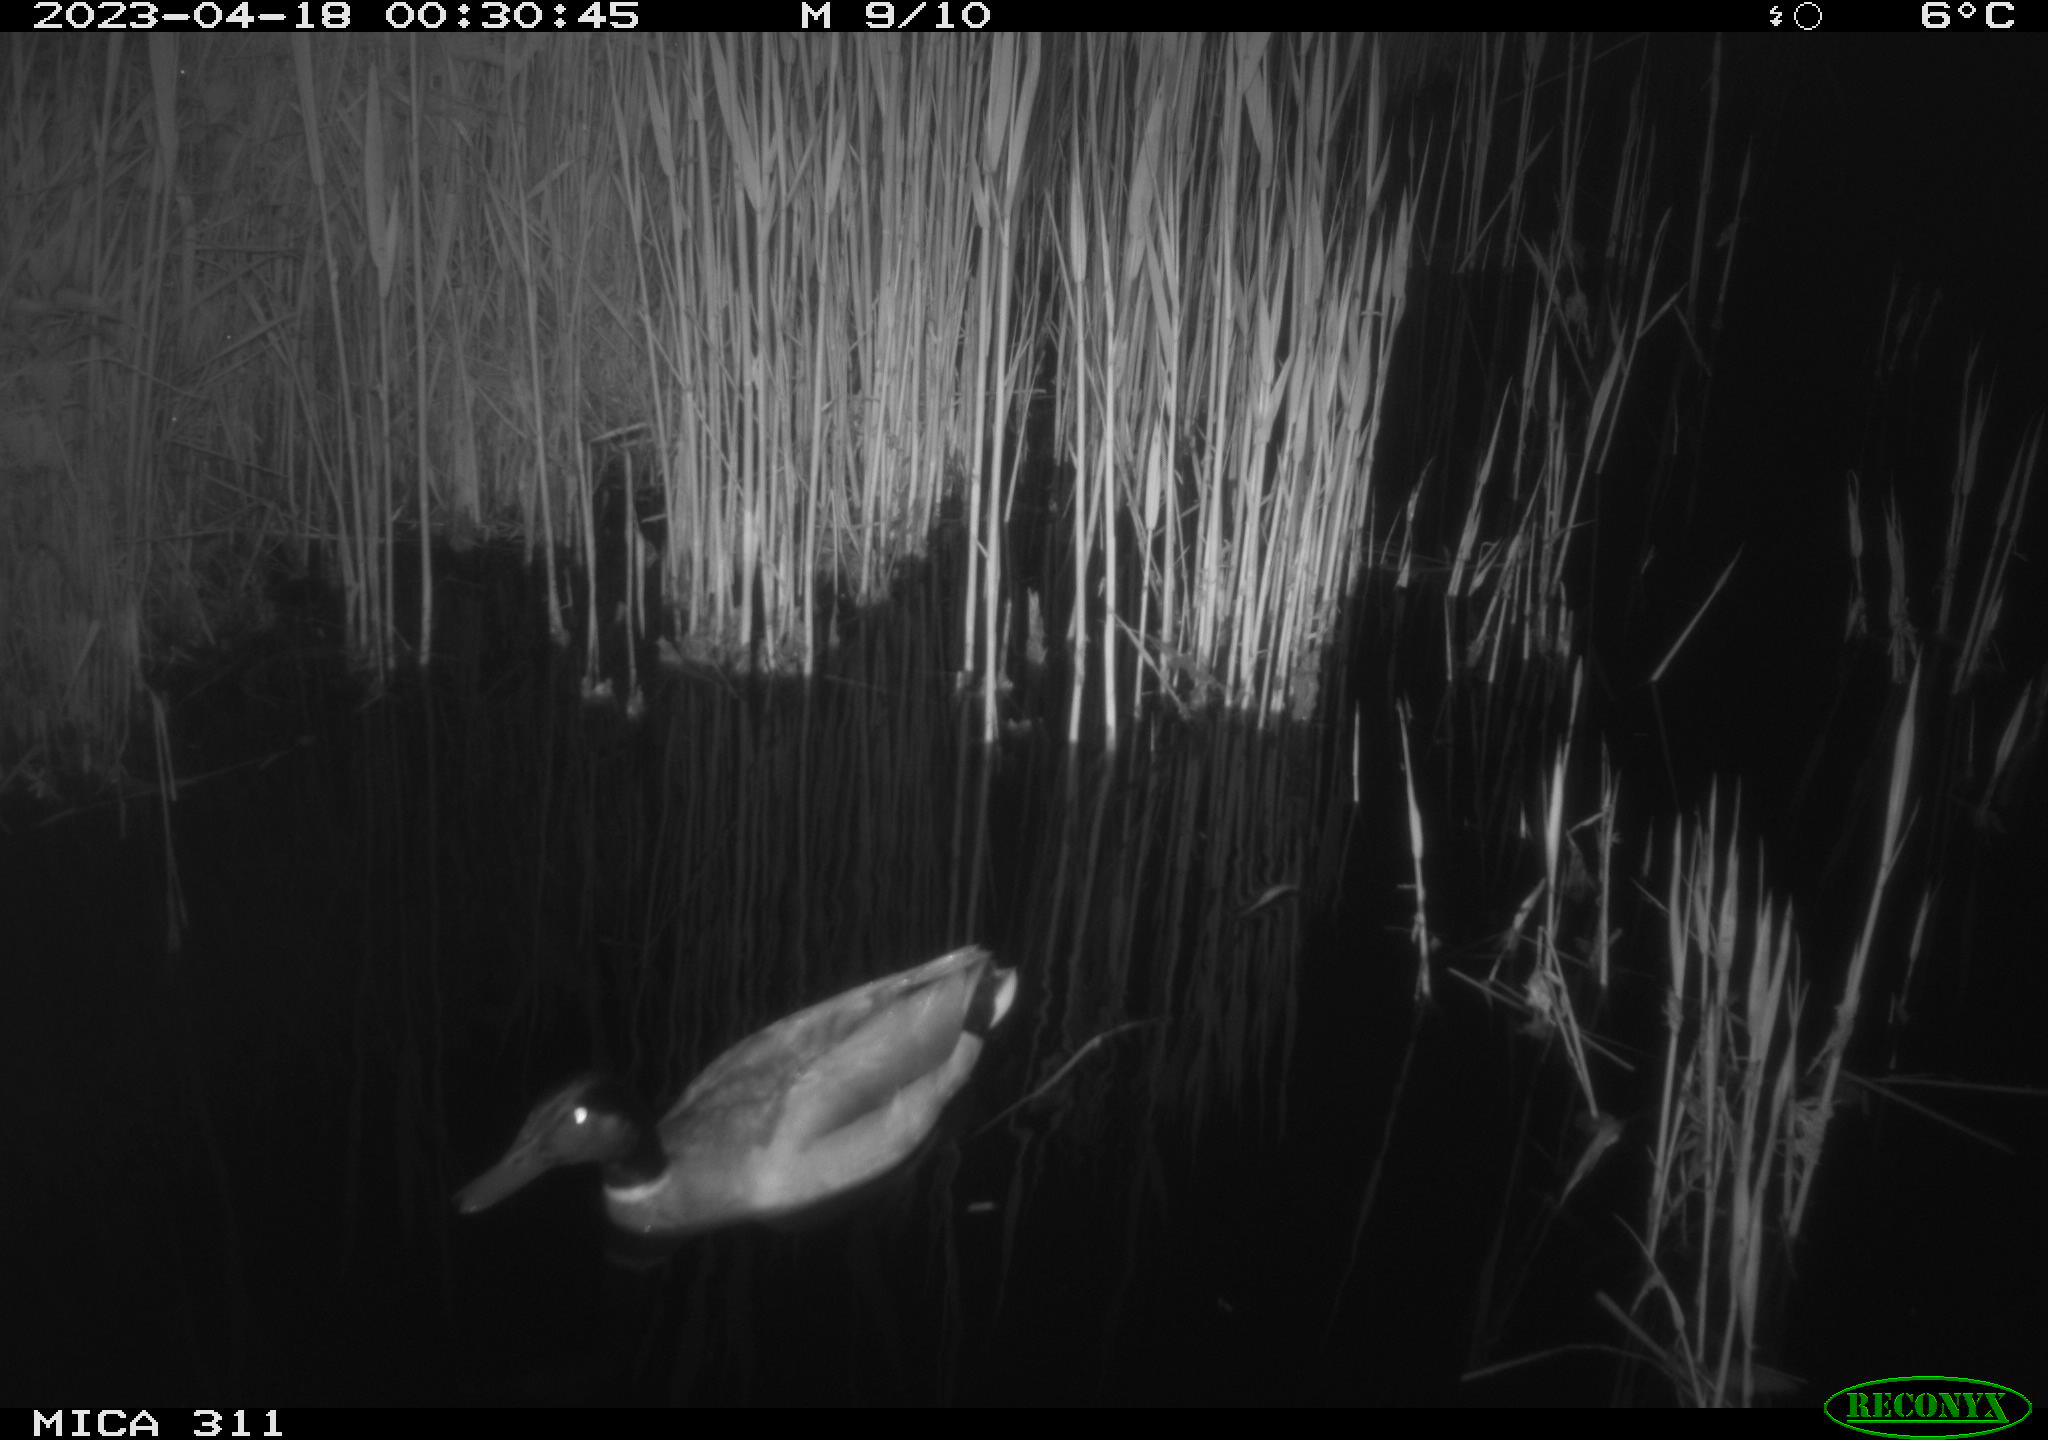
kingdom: Animalia
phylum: Chordata
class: Aves
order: Anseriformes
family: Anatidae
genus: Anas
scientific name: Anas
